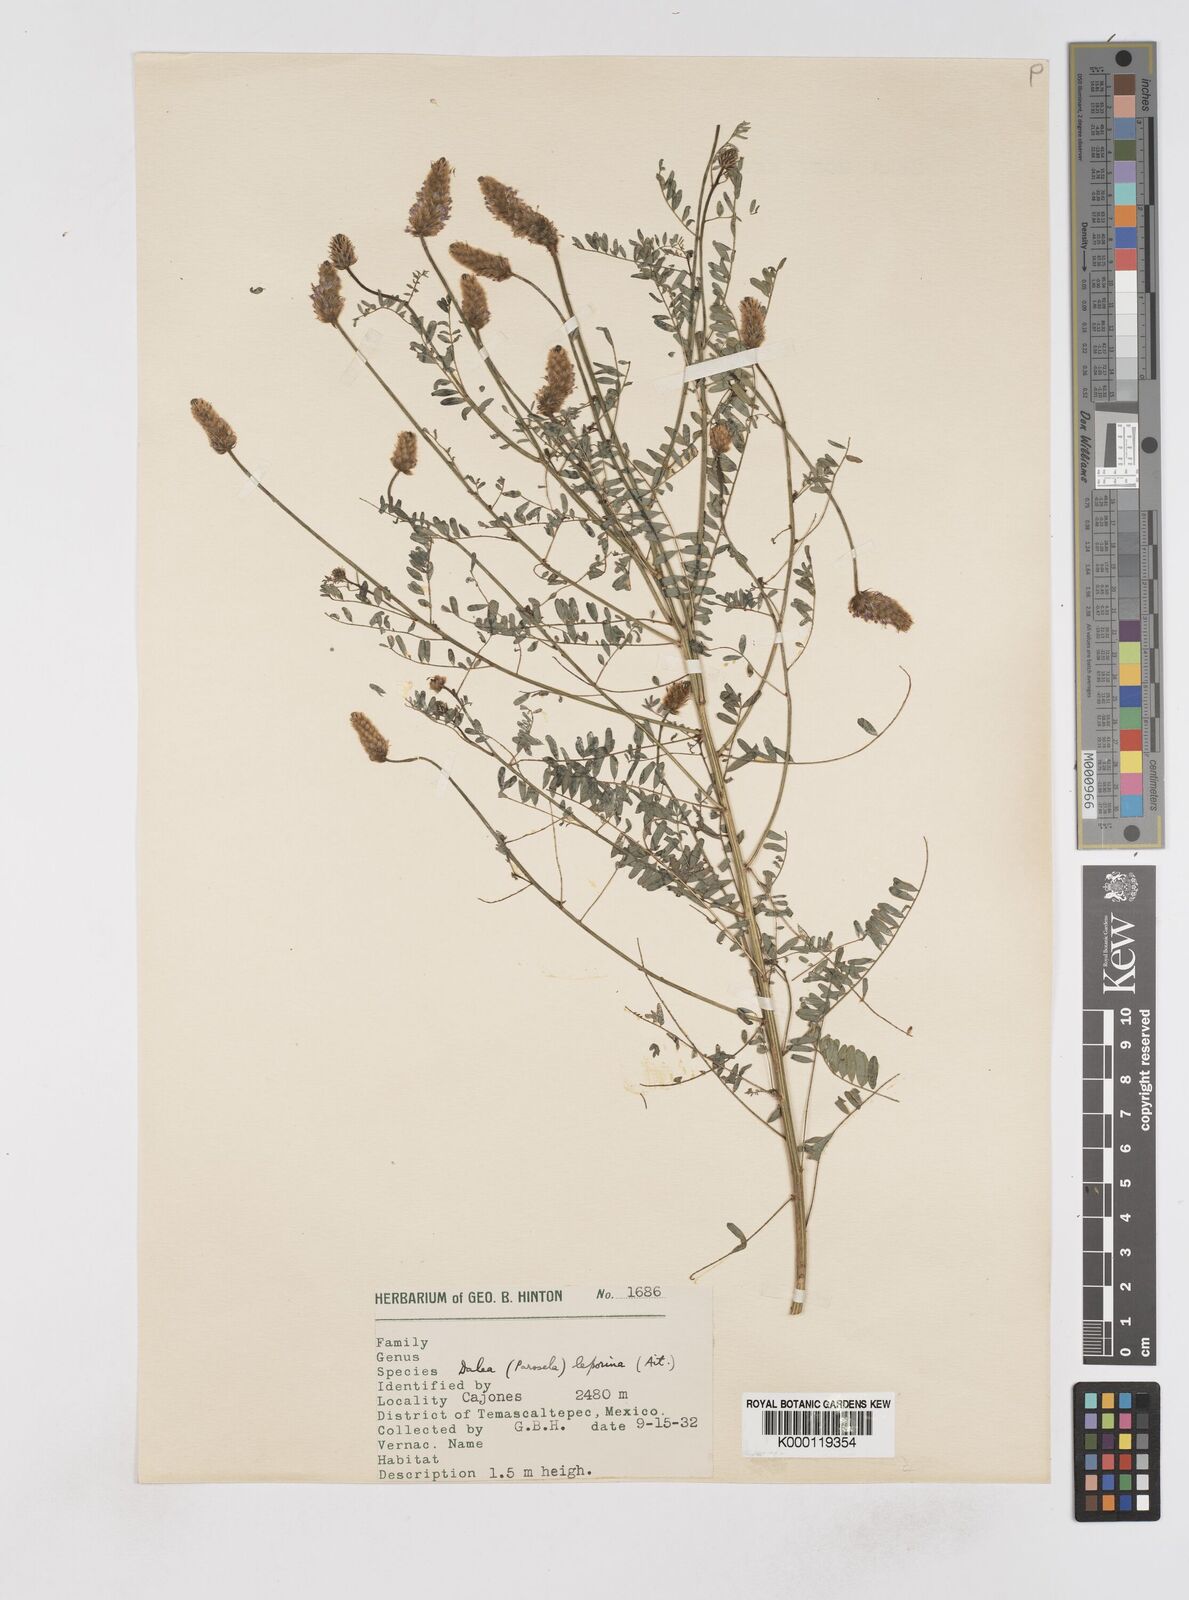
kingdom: Plantae
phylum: Tracheophyta
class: Magnoliopsida
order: Fabales
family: Fabaceae
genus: Dalea
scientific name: Dalea leporina
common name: Foxtail dalea
